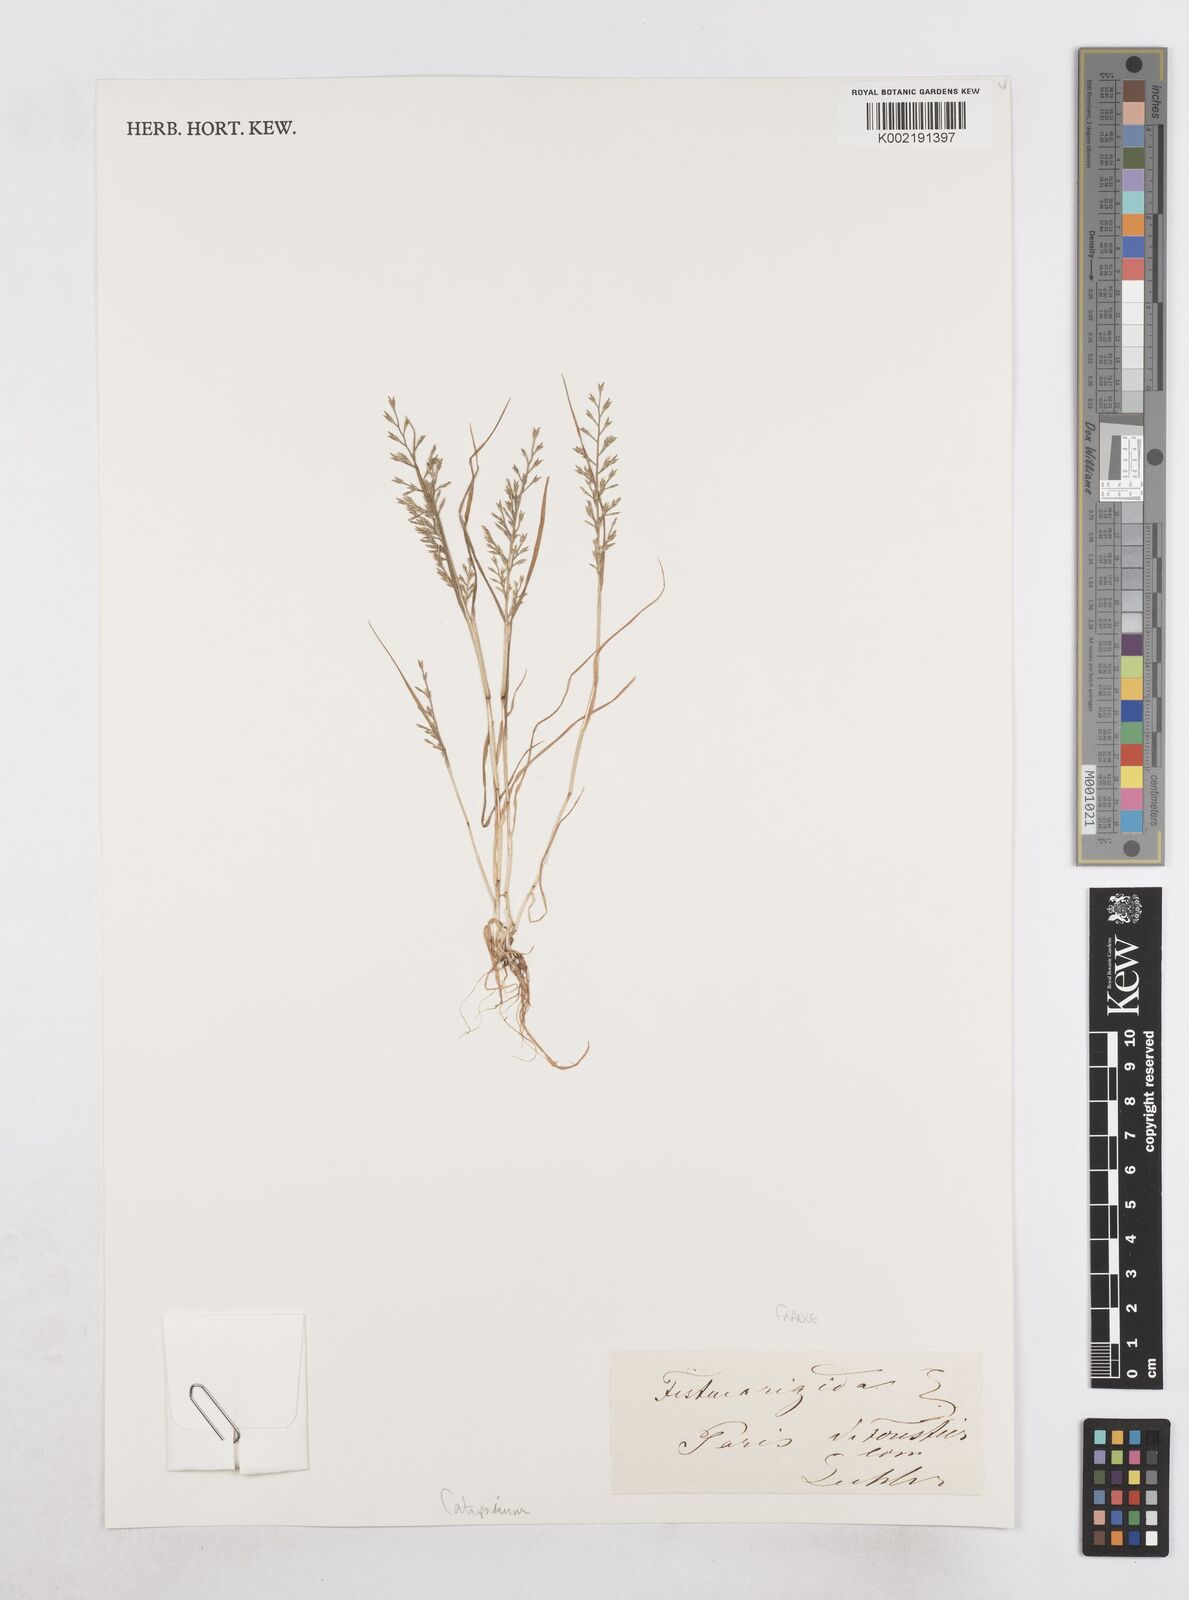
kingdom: Plantae
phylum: Tracheophyta
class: Liliopsida
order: Poales
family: Poaceae
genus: Catapodium
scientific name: Catapodium rigidum
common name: Fern-grass
